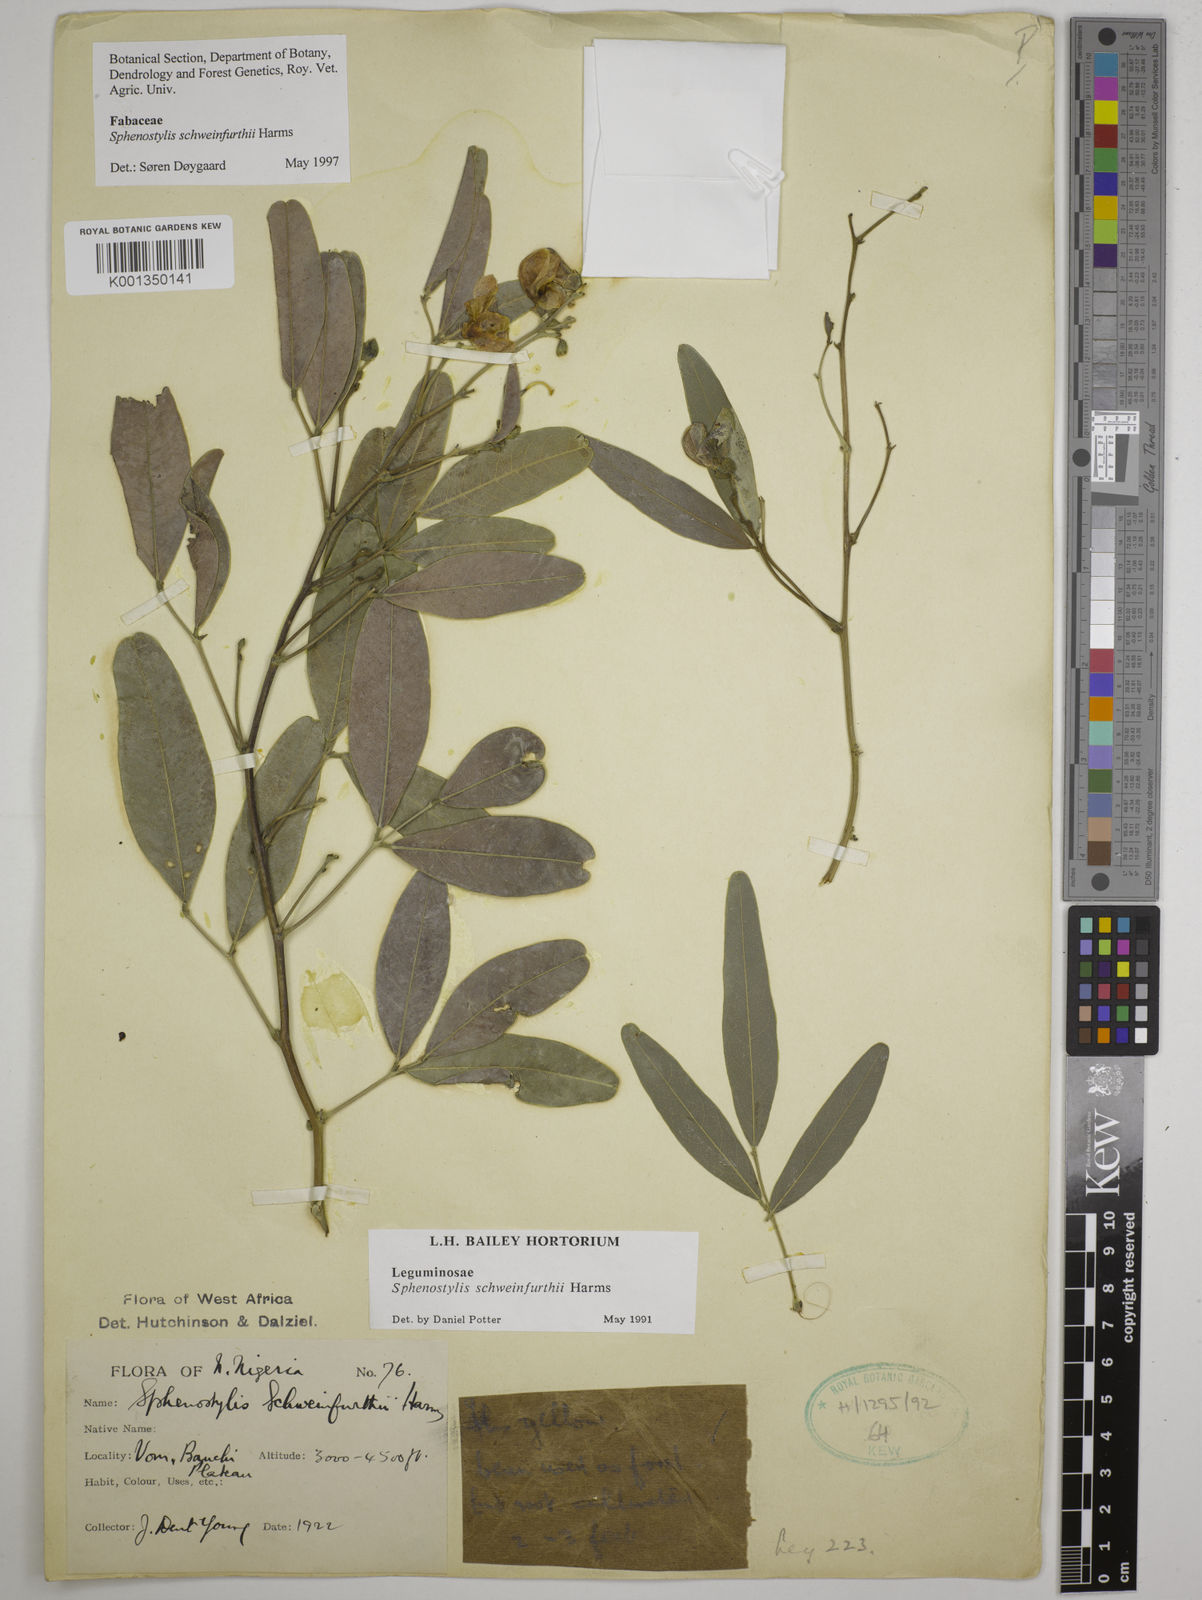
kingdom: Plantae
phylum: Tracheophyta
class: Magnoliopsida
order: Fabales
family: Fabaceae
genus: Sphenostylis
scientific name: Sphenostylis schweinfurthii
